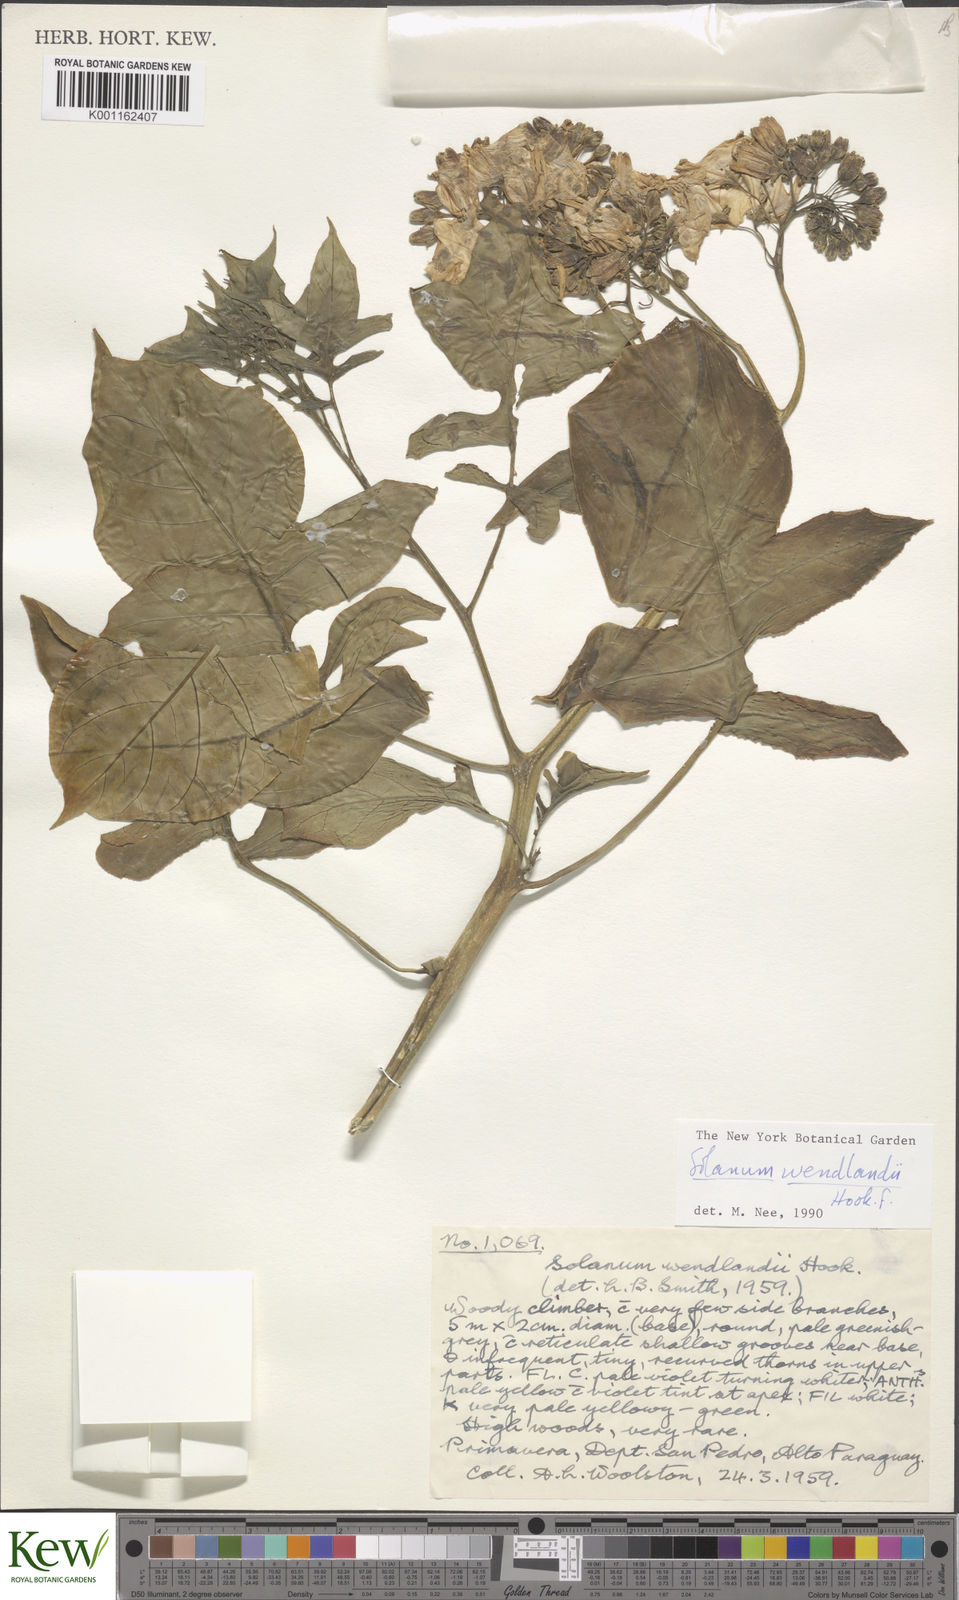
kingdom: Plantae
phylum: Tracheophyta
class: Magnoliopsida
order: Solanales
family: Solanaceae
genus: Solanum
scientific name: Solanum wendlandii
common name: Costa rican nightshade
